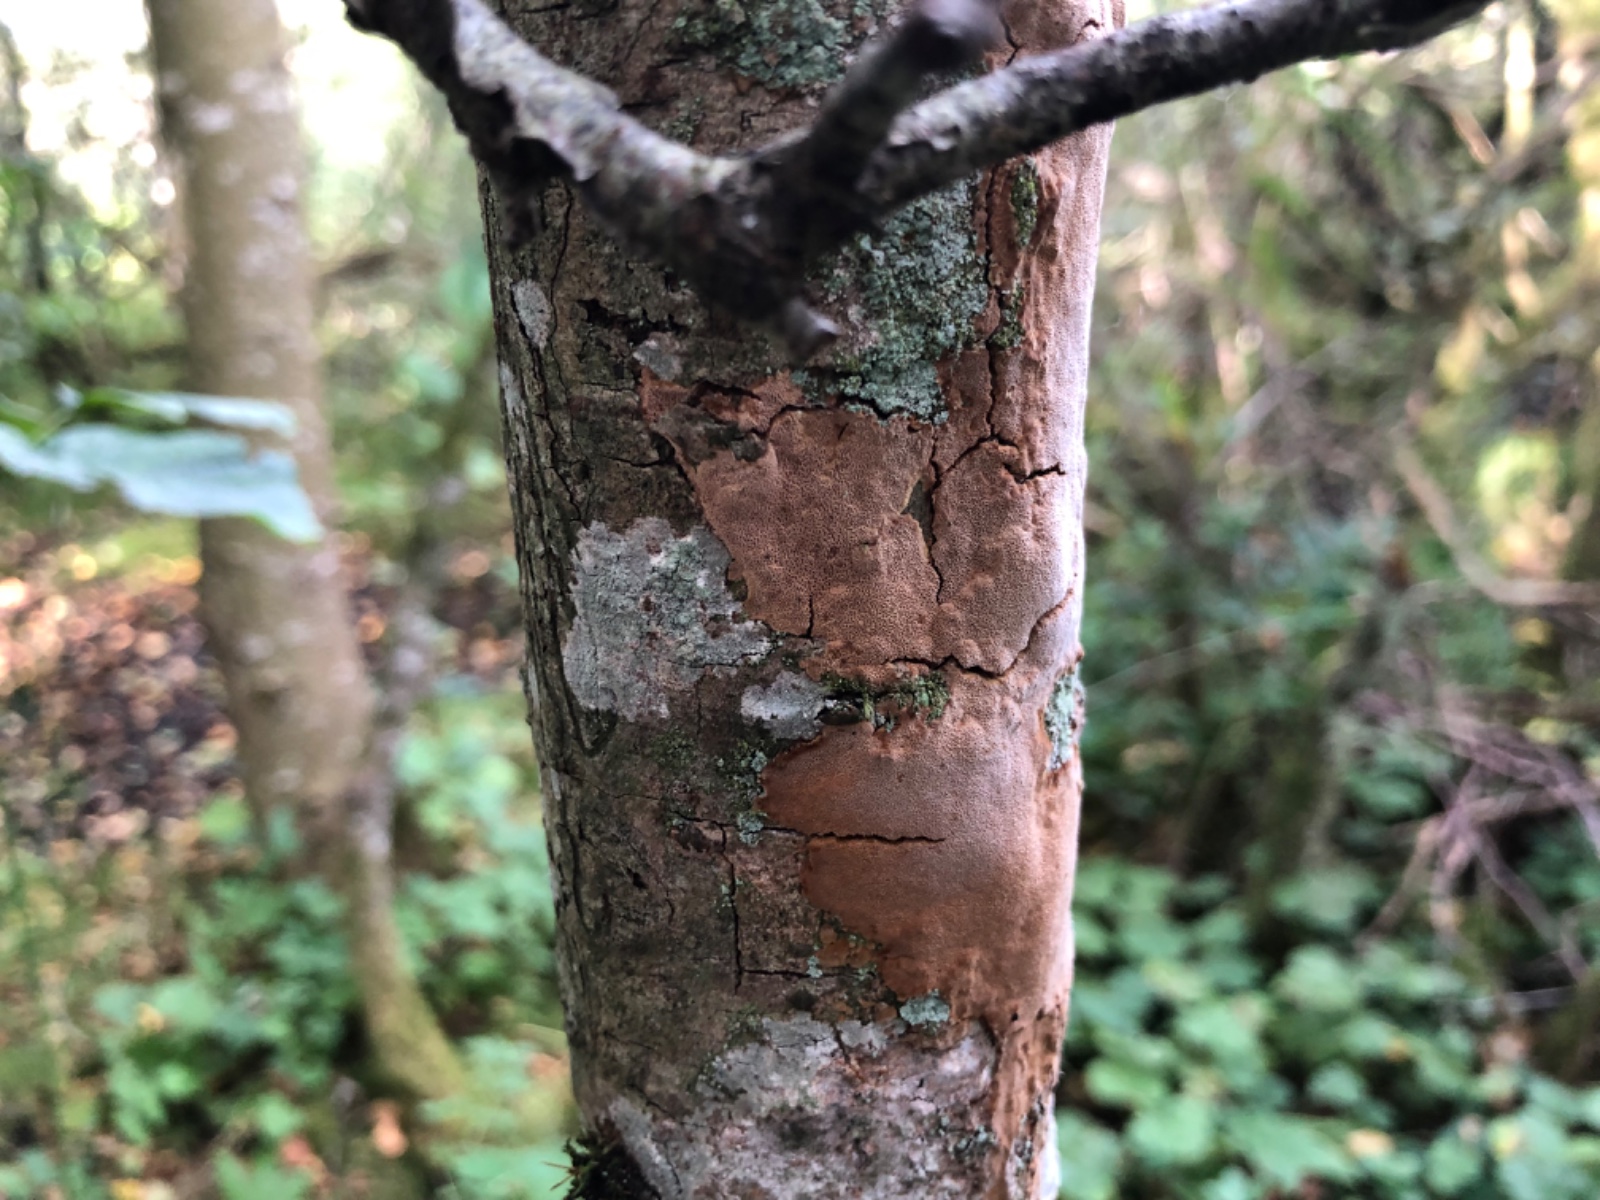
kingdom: Fungi
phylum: Basidiomycota
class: Agaricomycetes
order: Hymenochaetales
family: Hymenochaetaceae
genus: Fomitiporia
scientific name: Fomitiporia punctata
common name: pude-ildporesvamp
